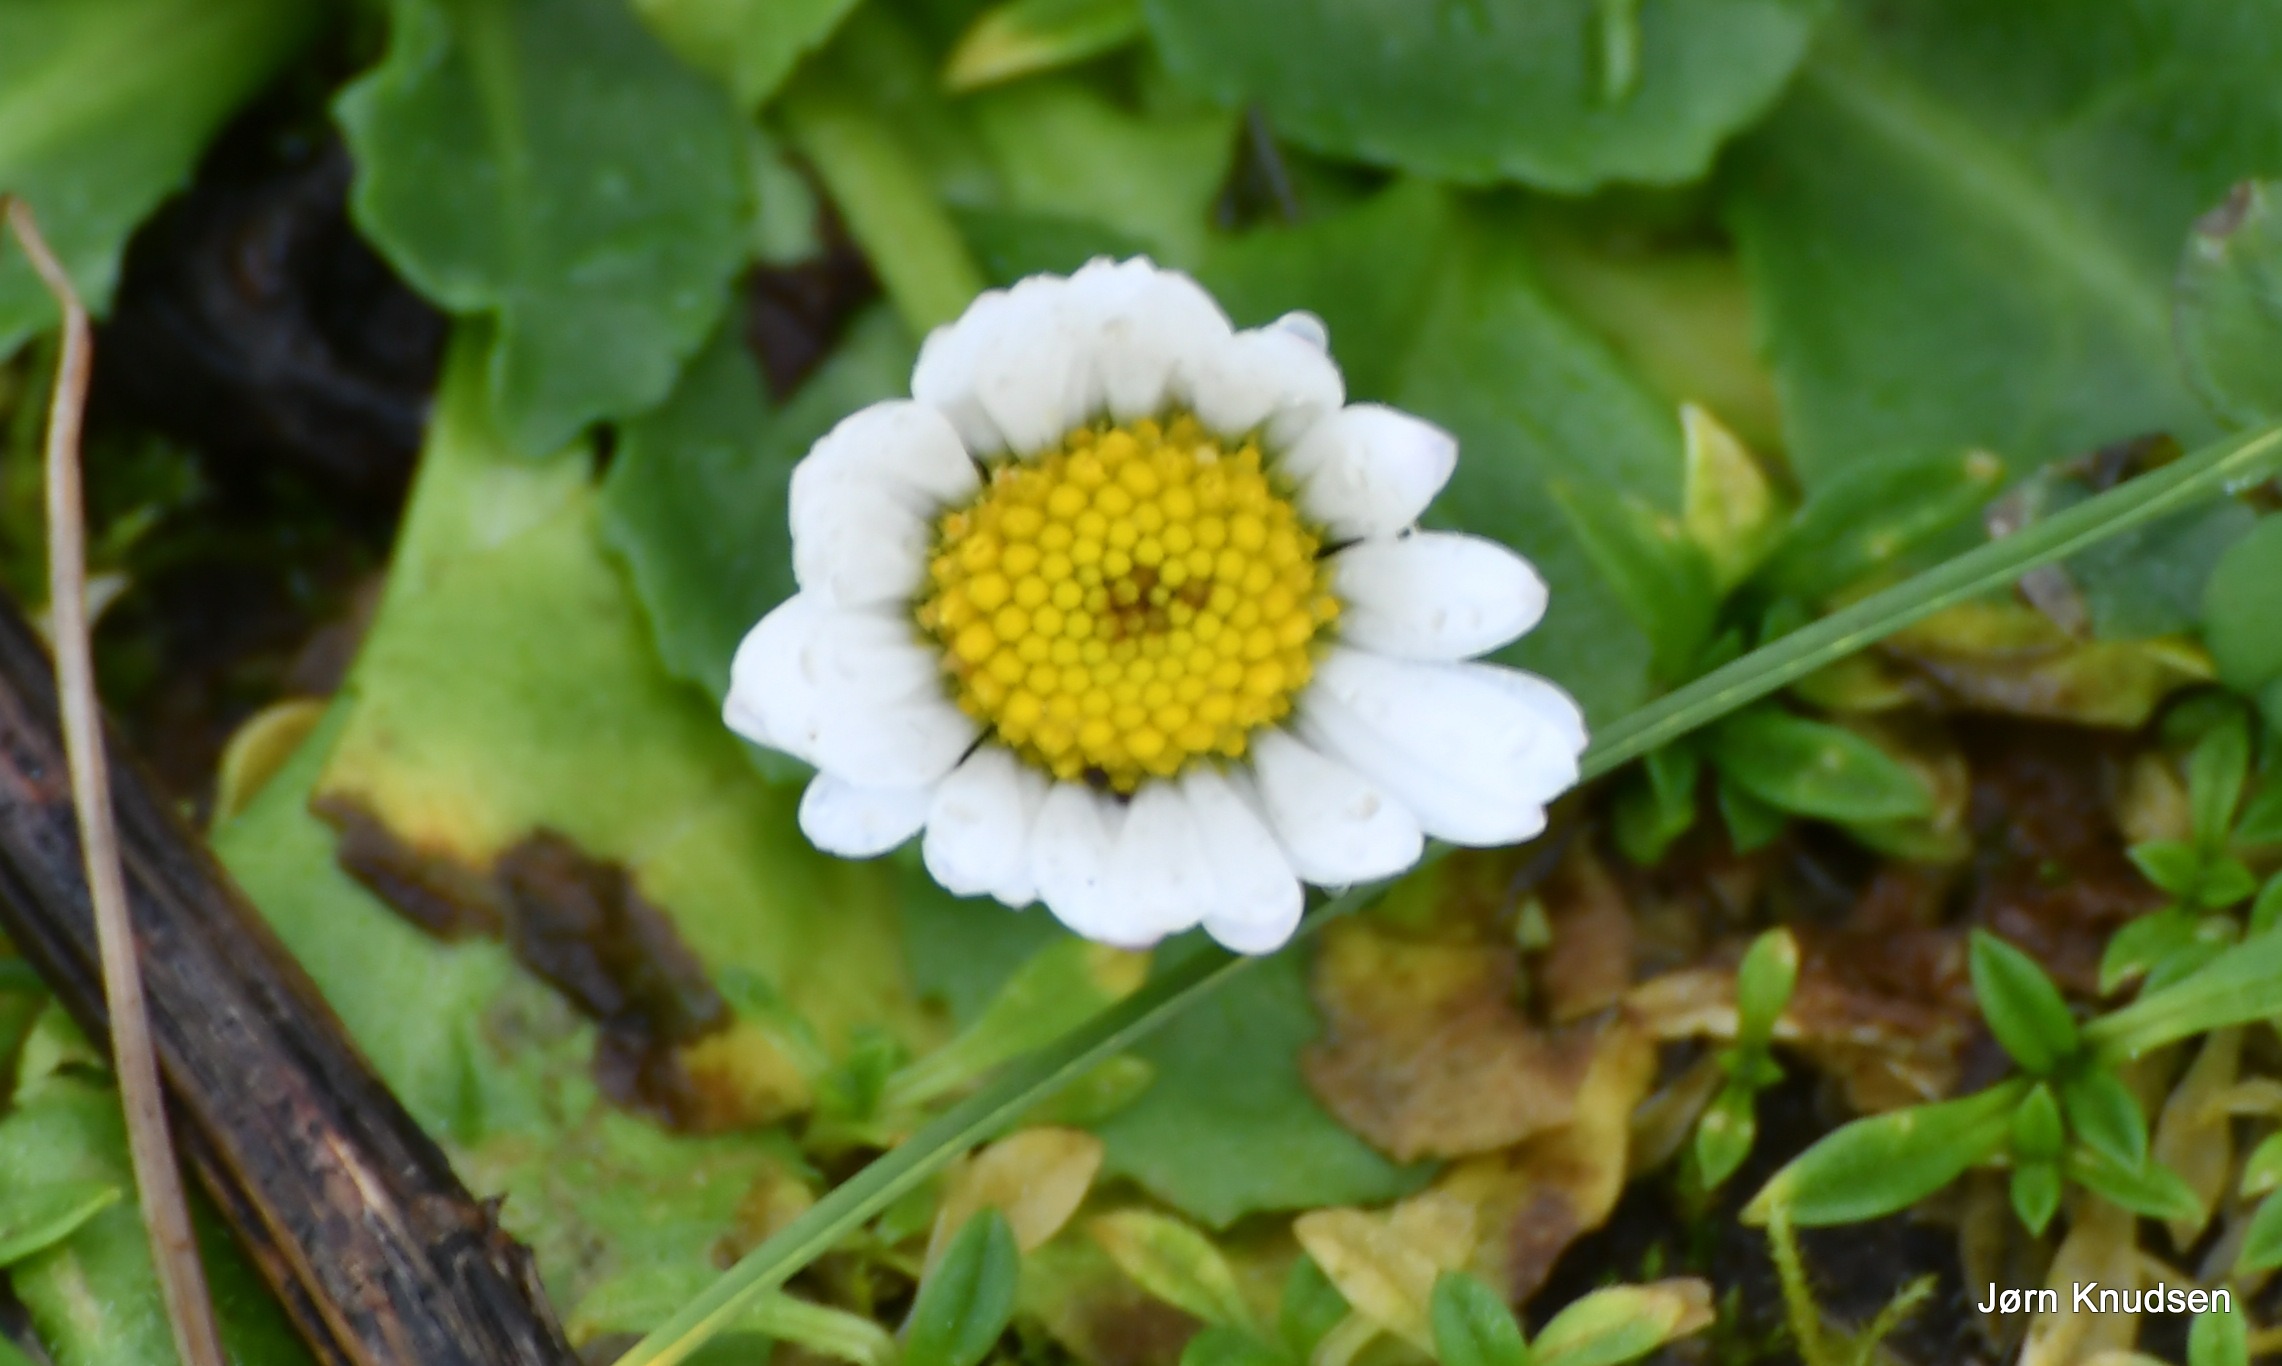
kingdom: Plantae
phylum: Tracheophyta
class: Magnoliopsida
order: Asterales
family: Asteraceae
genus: Bellis
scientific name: Bellis perennis
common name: Tusindfryd
